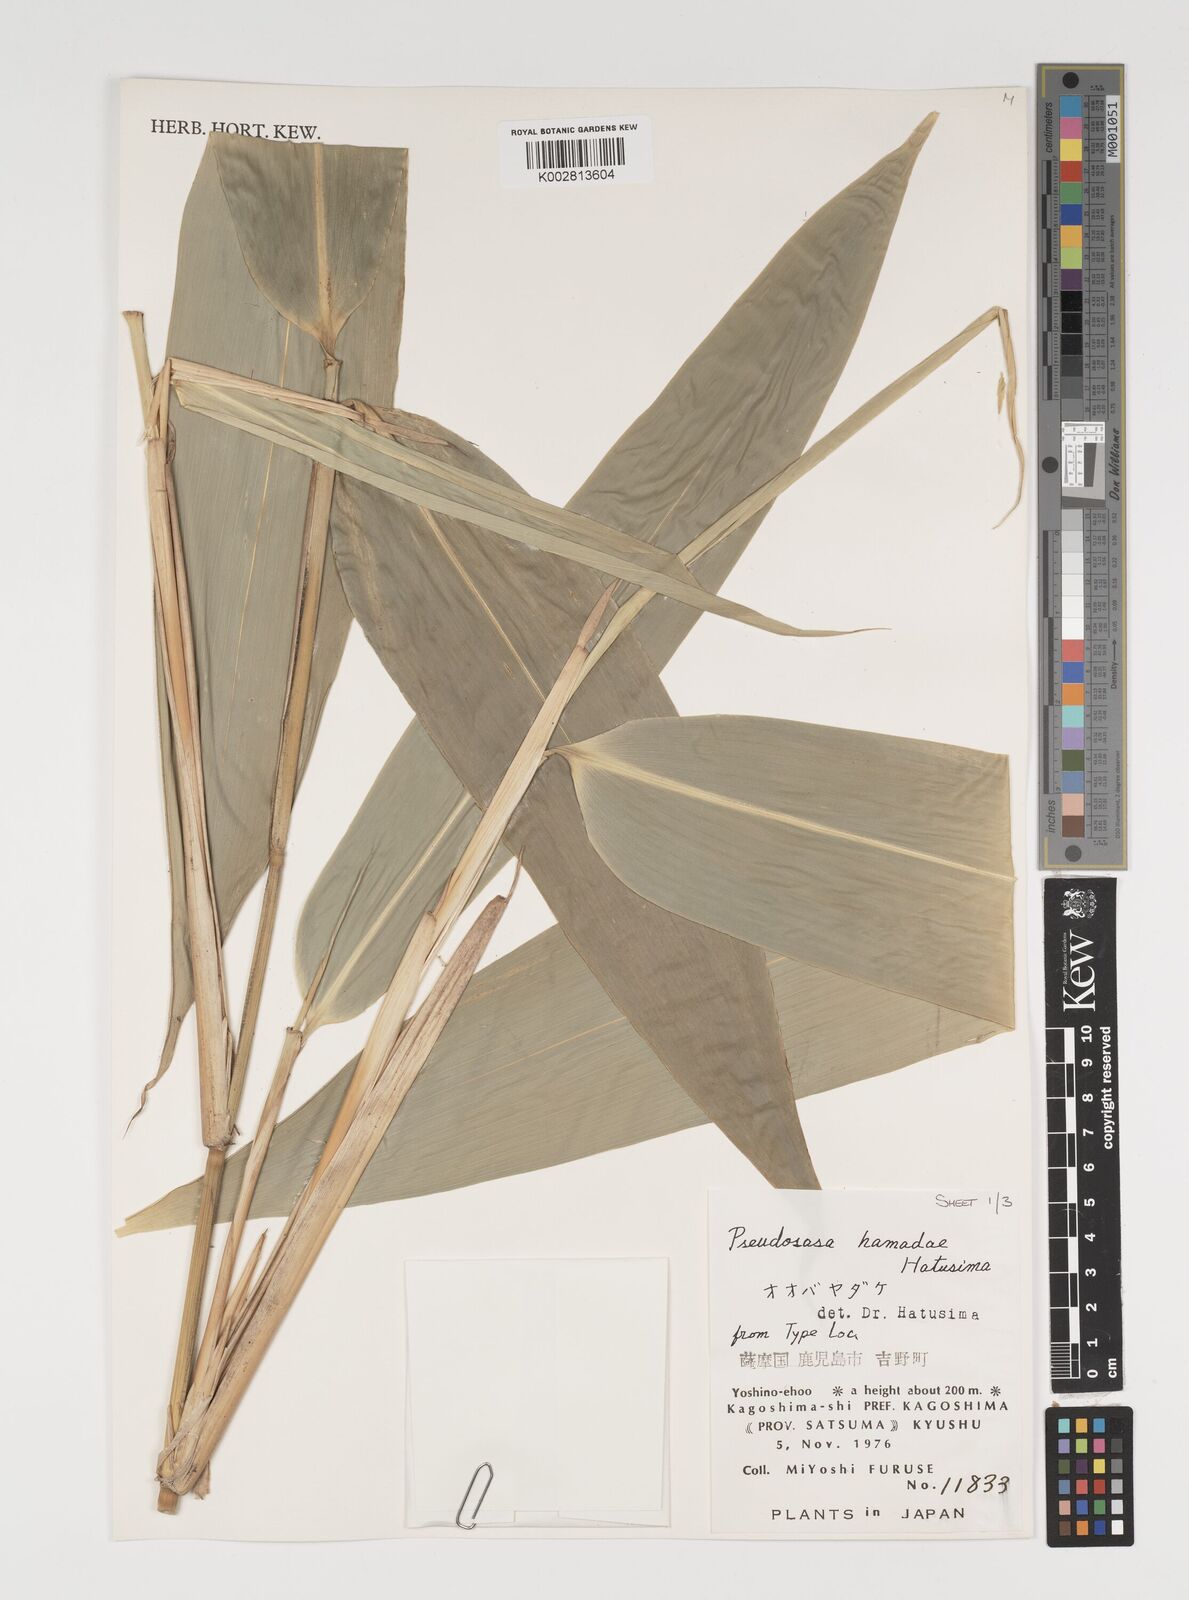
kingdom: Plantae
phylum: Tracheophyta
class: Liliopsida
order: Poales
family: Poaceae
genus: Indocalamus
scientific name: Indocalamus tessellatus
